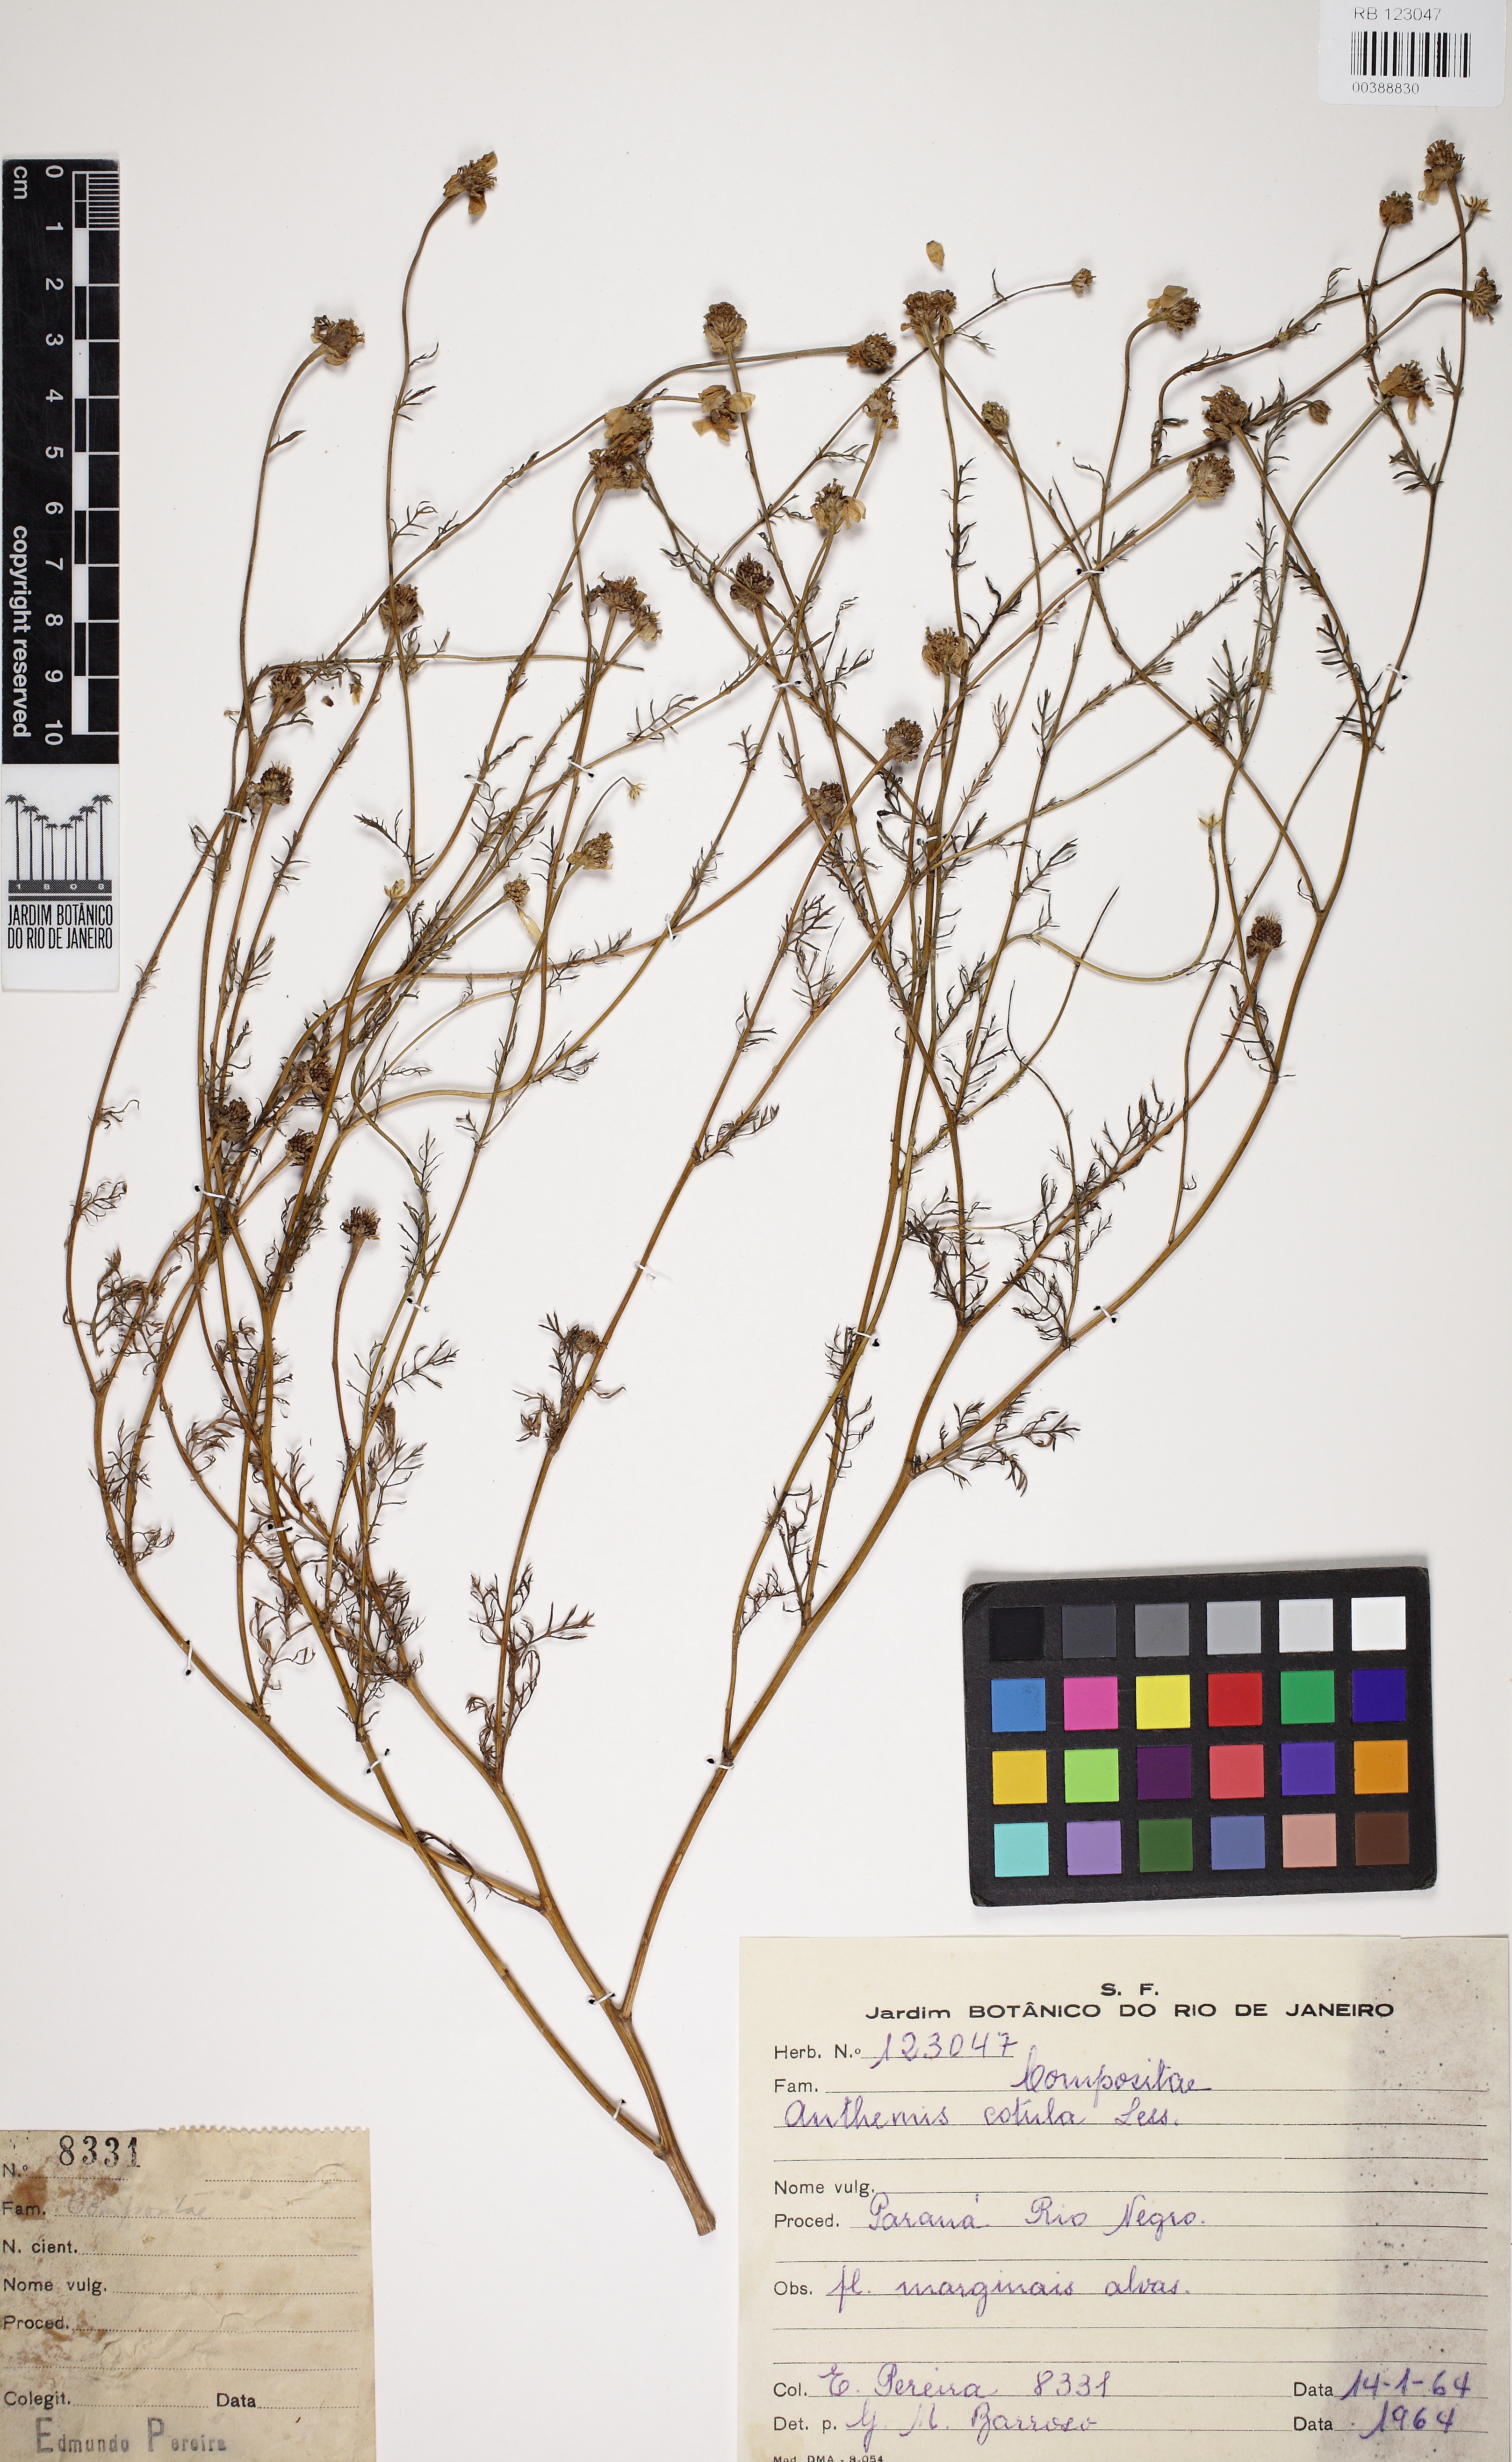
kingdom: Plantae
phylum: Tracheophyta
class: Magnoliopsida
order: Asterales
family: Asteraceae
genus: Anthemis
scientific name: Anthemis cotula
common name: Stinking chamomile
